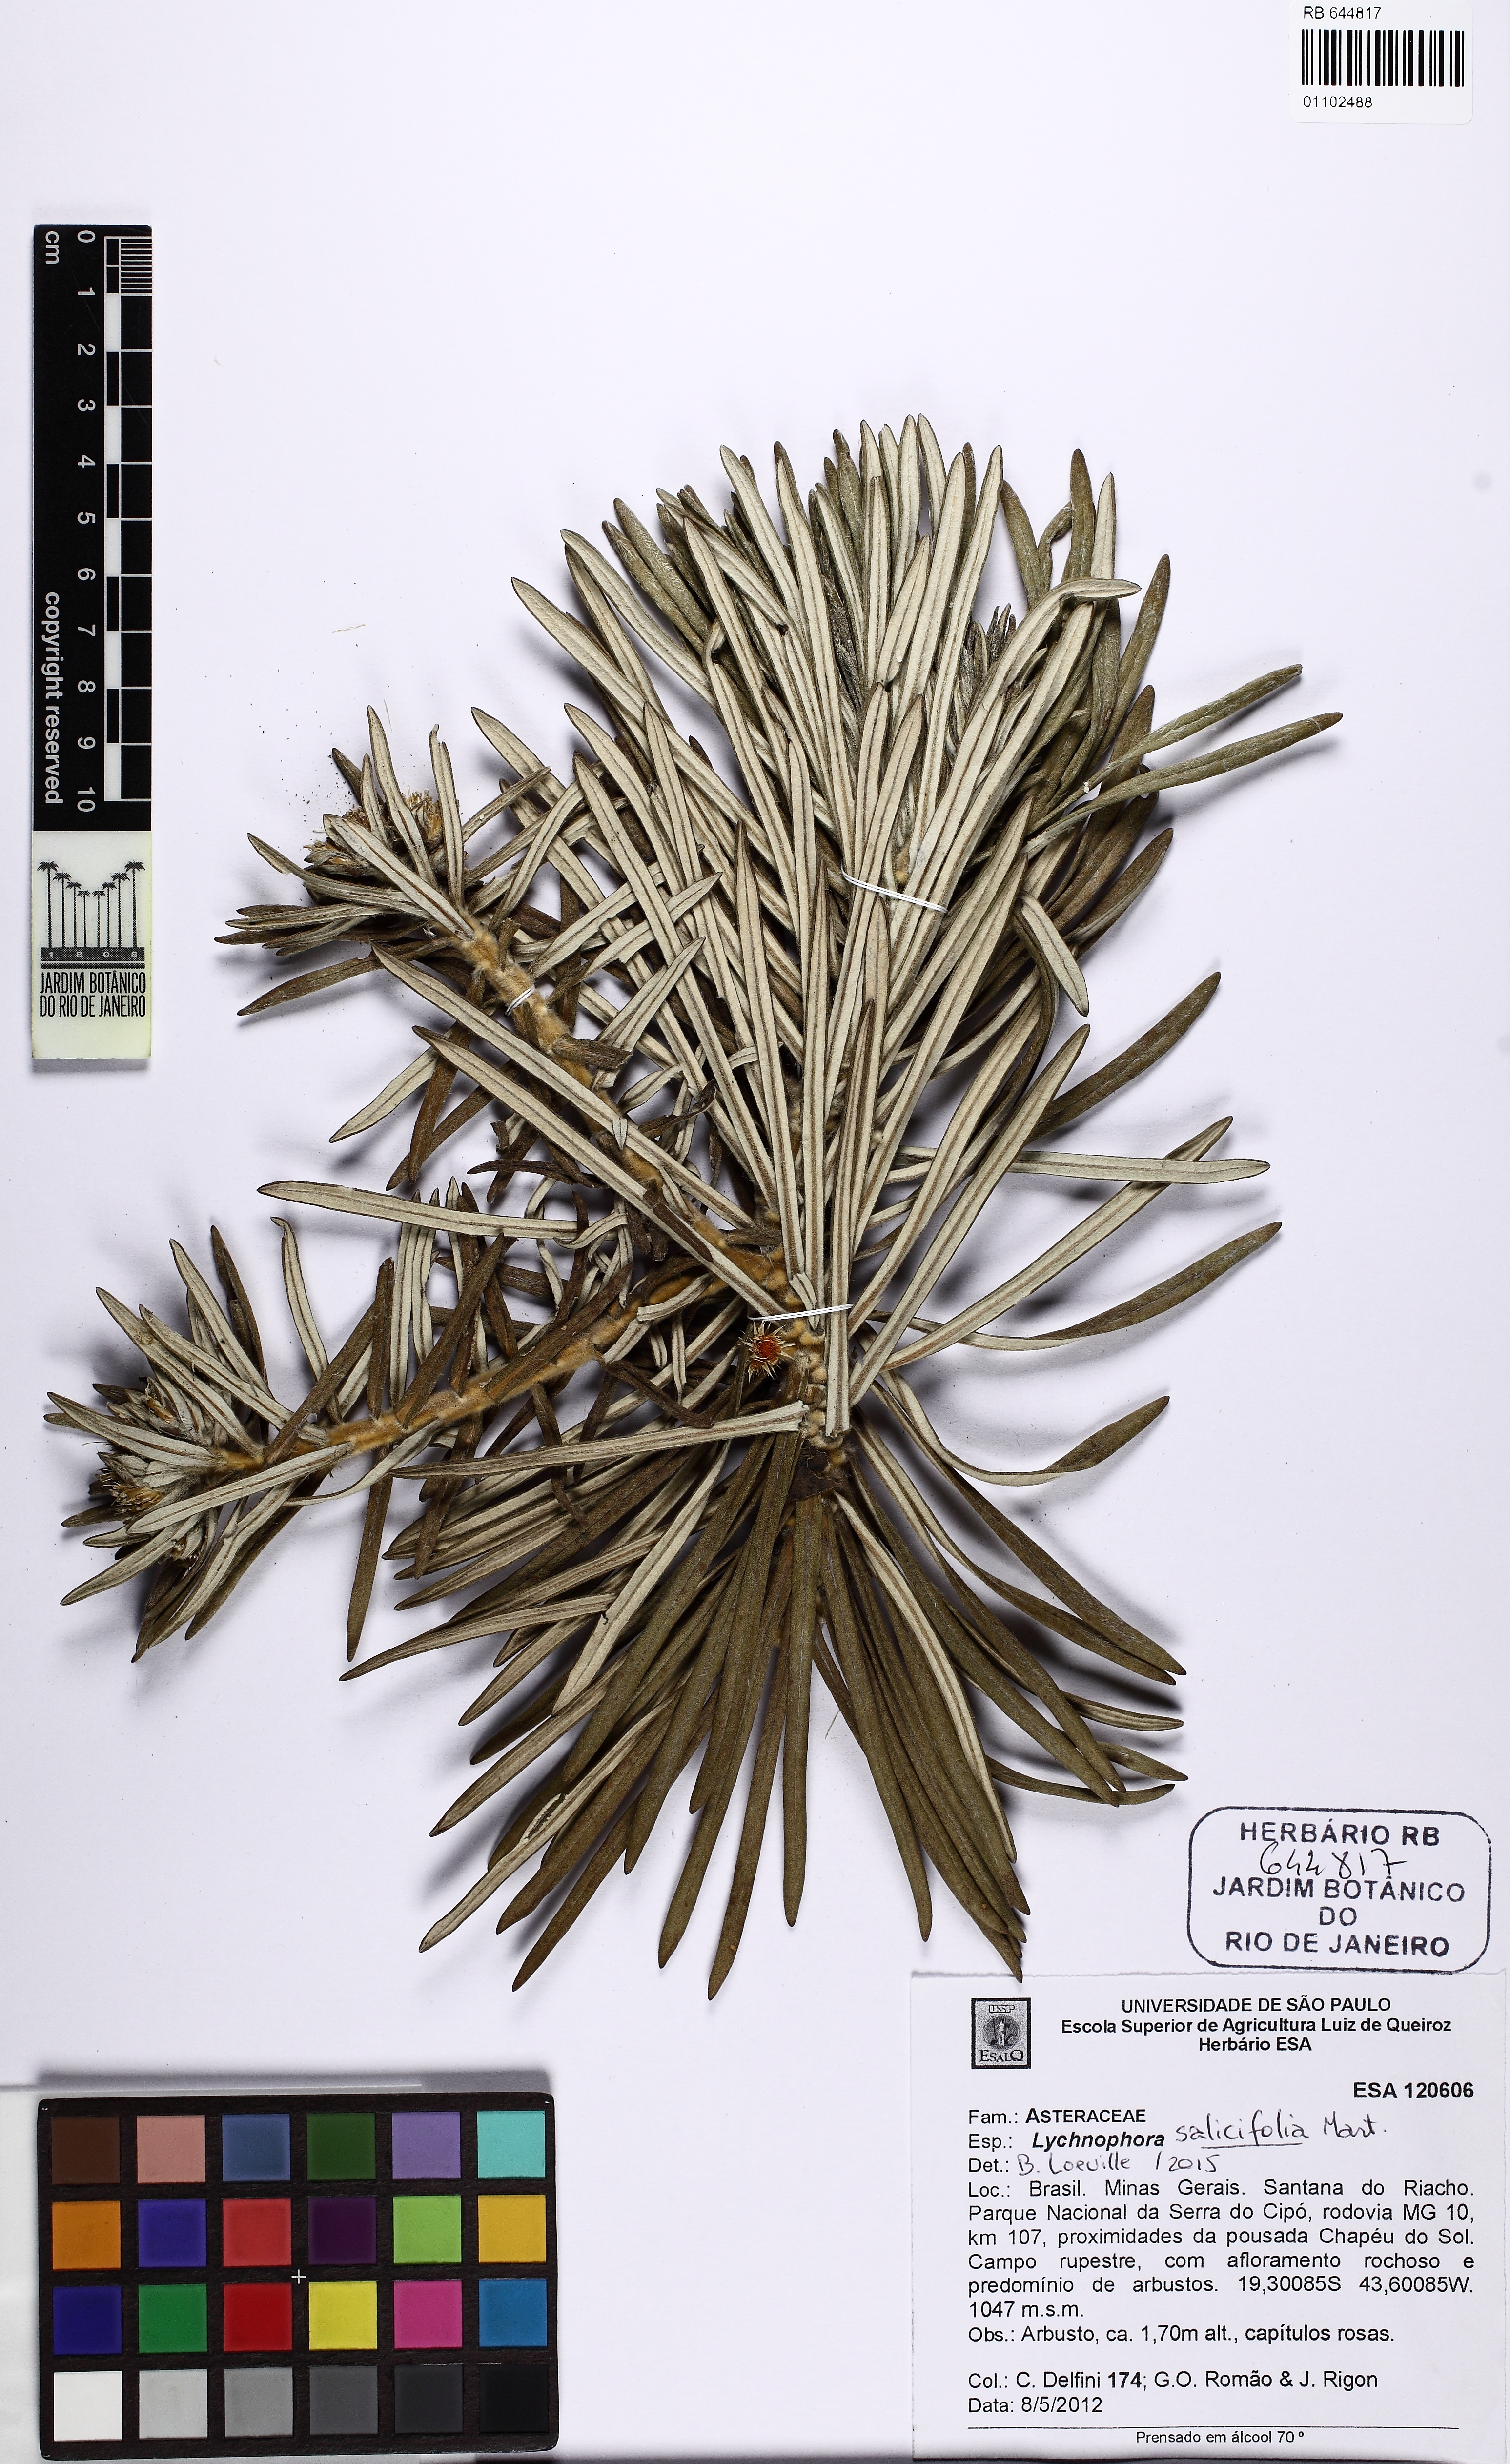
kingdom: Plantae
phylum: Tracheophyta
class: Magnoliopsida
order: Asterales
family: Asteraceae
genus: Lychnophora
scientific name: Lychnophora salicifolia
